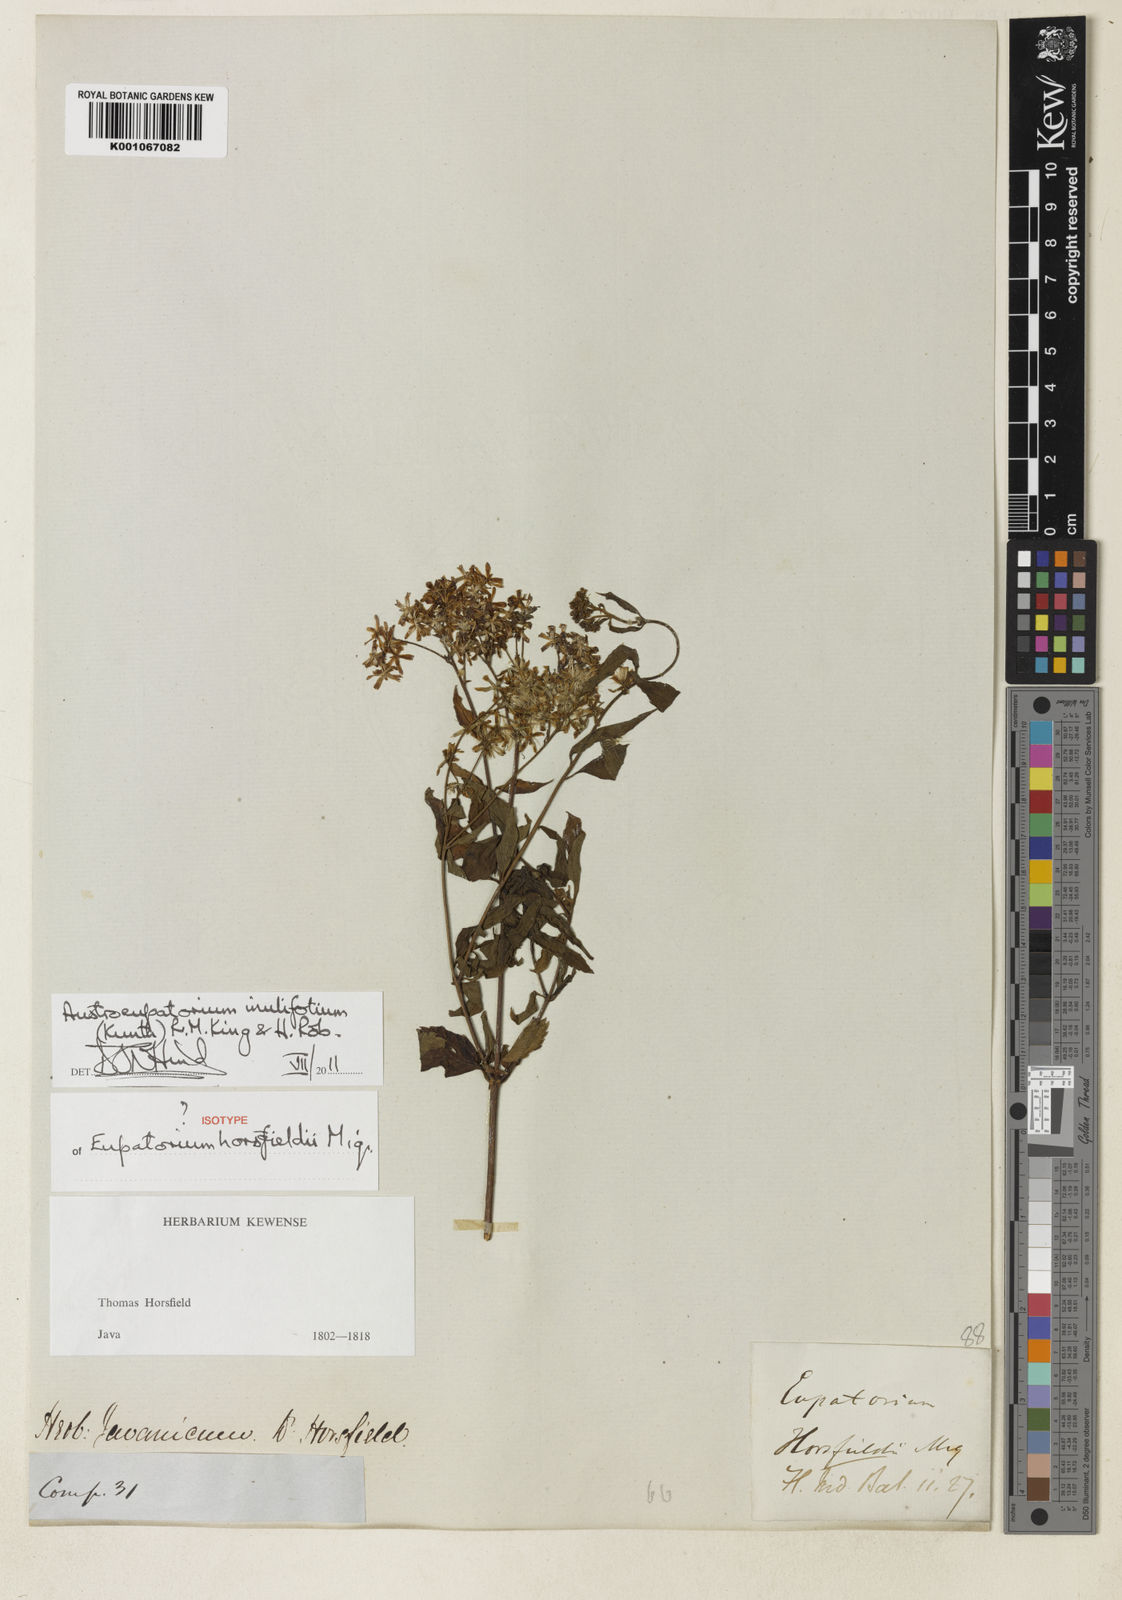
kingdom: Plantae
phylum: Tracheophyta
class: Magnoliopsida
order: Asterales
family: Asteraceae
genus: Austroeupatorium
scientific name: Austroeupatorium inulifolium
